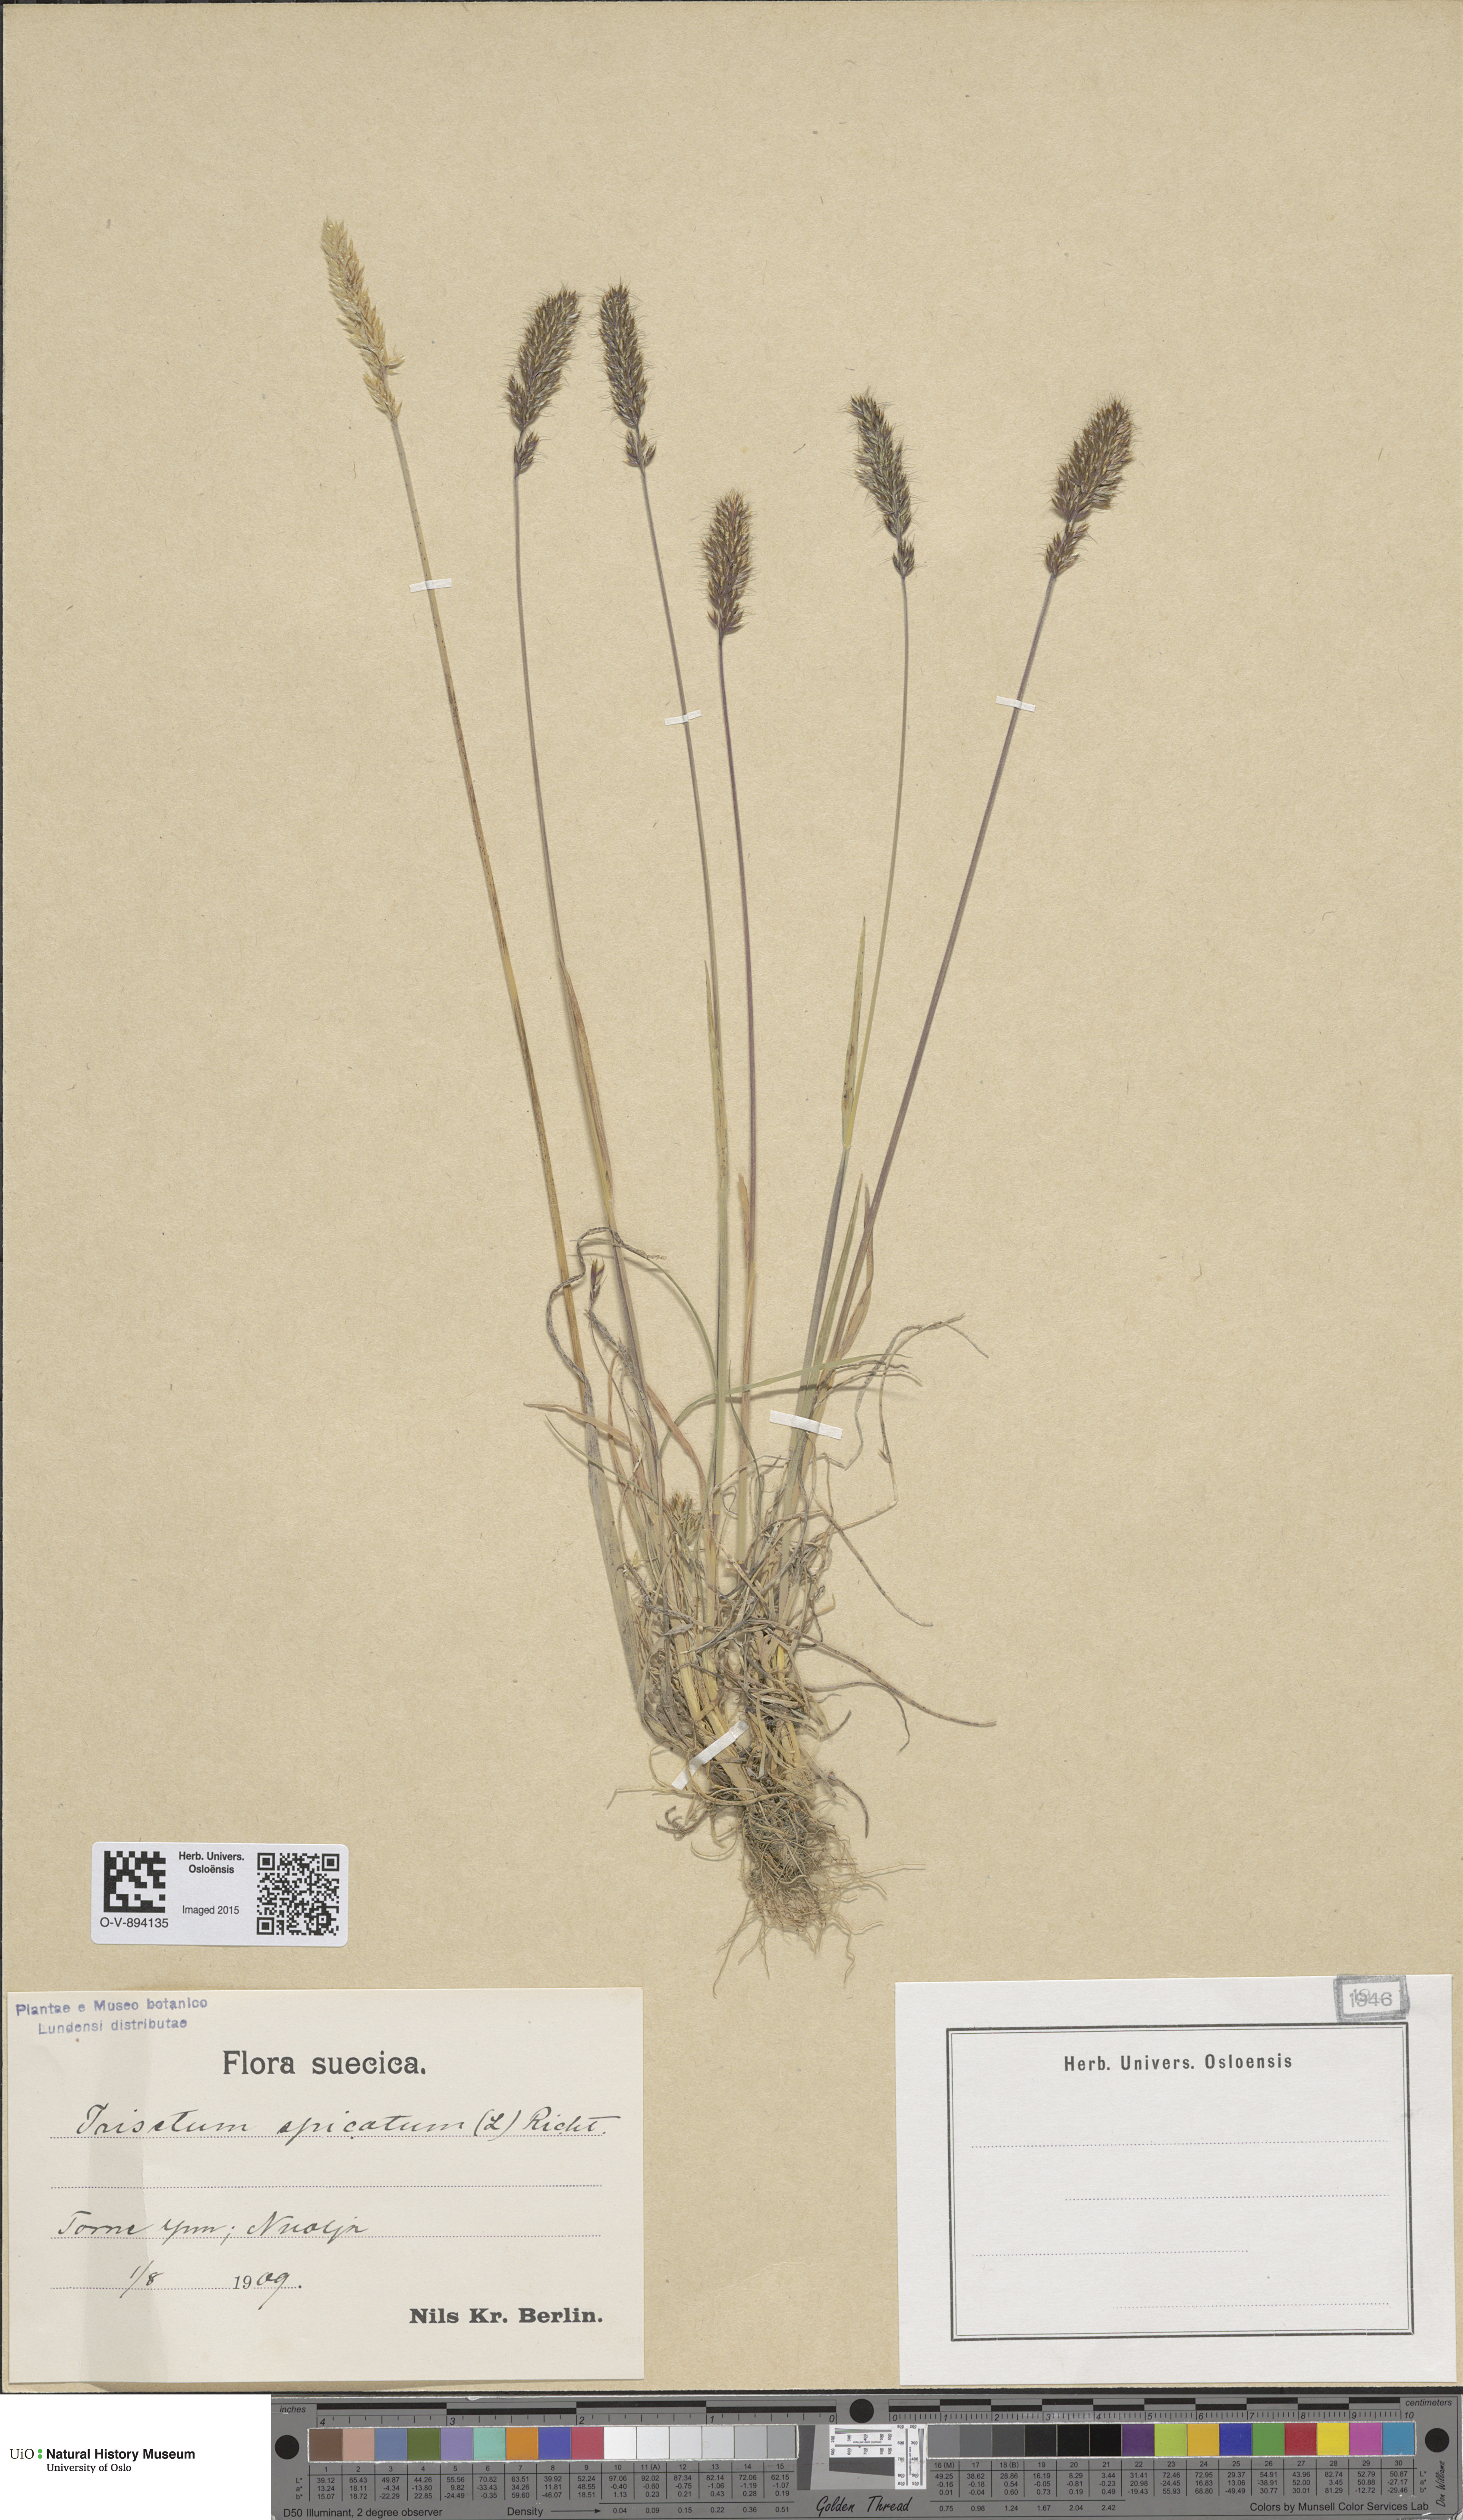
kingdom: Plantae
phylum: Tracheophyta
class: Liliopsida
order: Poales
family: Poaceae
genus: Koeleria
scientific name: Koeleria spicata
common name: Mountain trisetum
